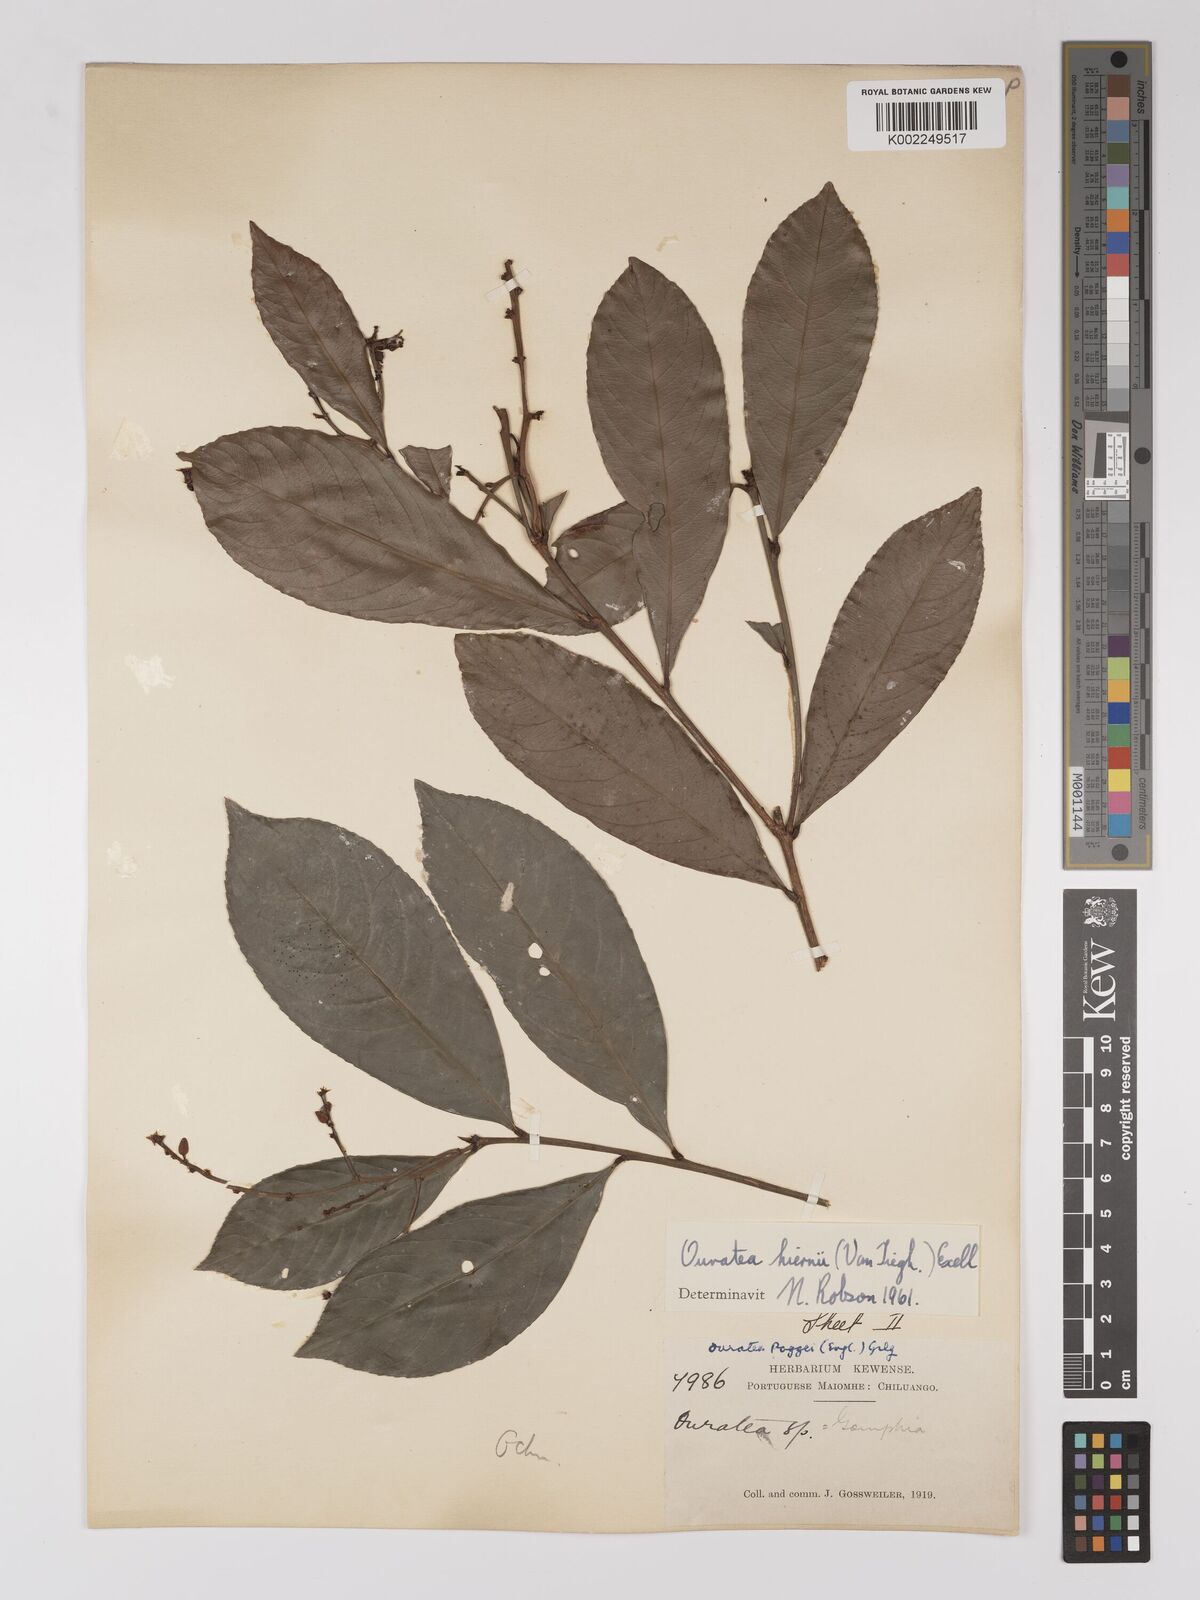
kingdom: Plantae
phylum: Tracheophyta
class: Magnoliopsida
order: Malpighiales
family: Ochnaceae
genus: Campylospermum
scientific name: Campylospermum vogelii
